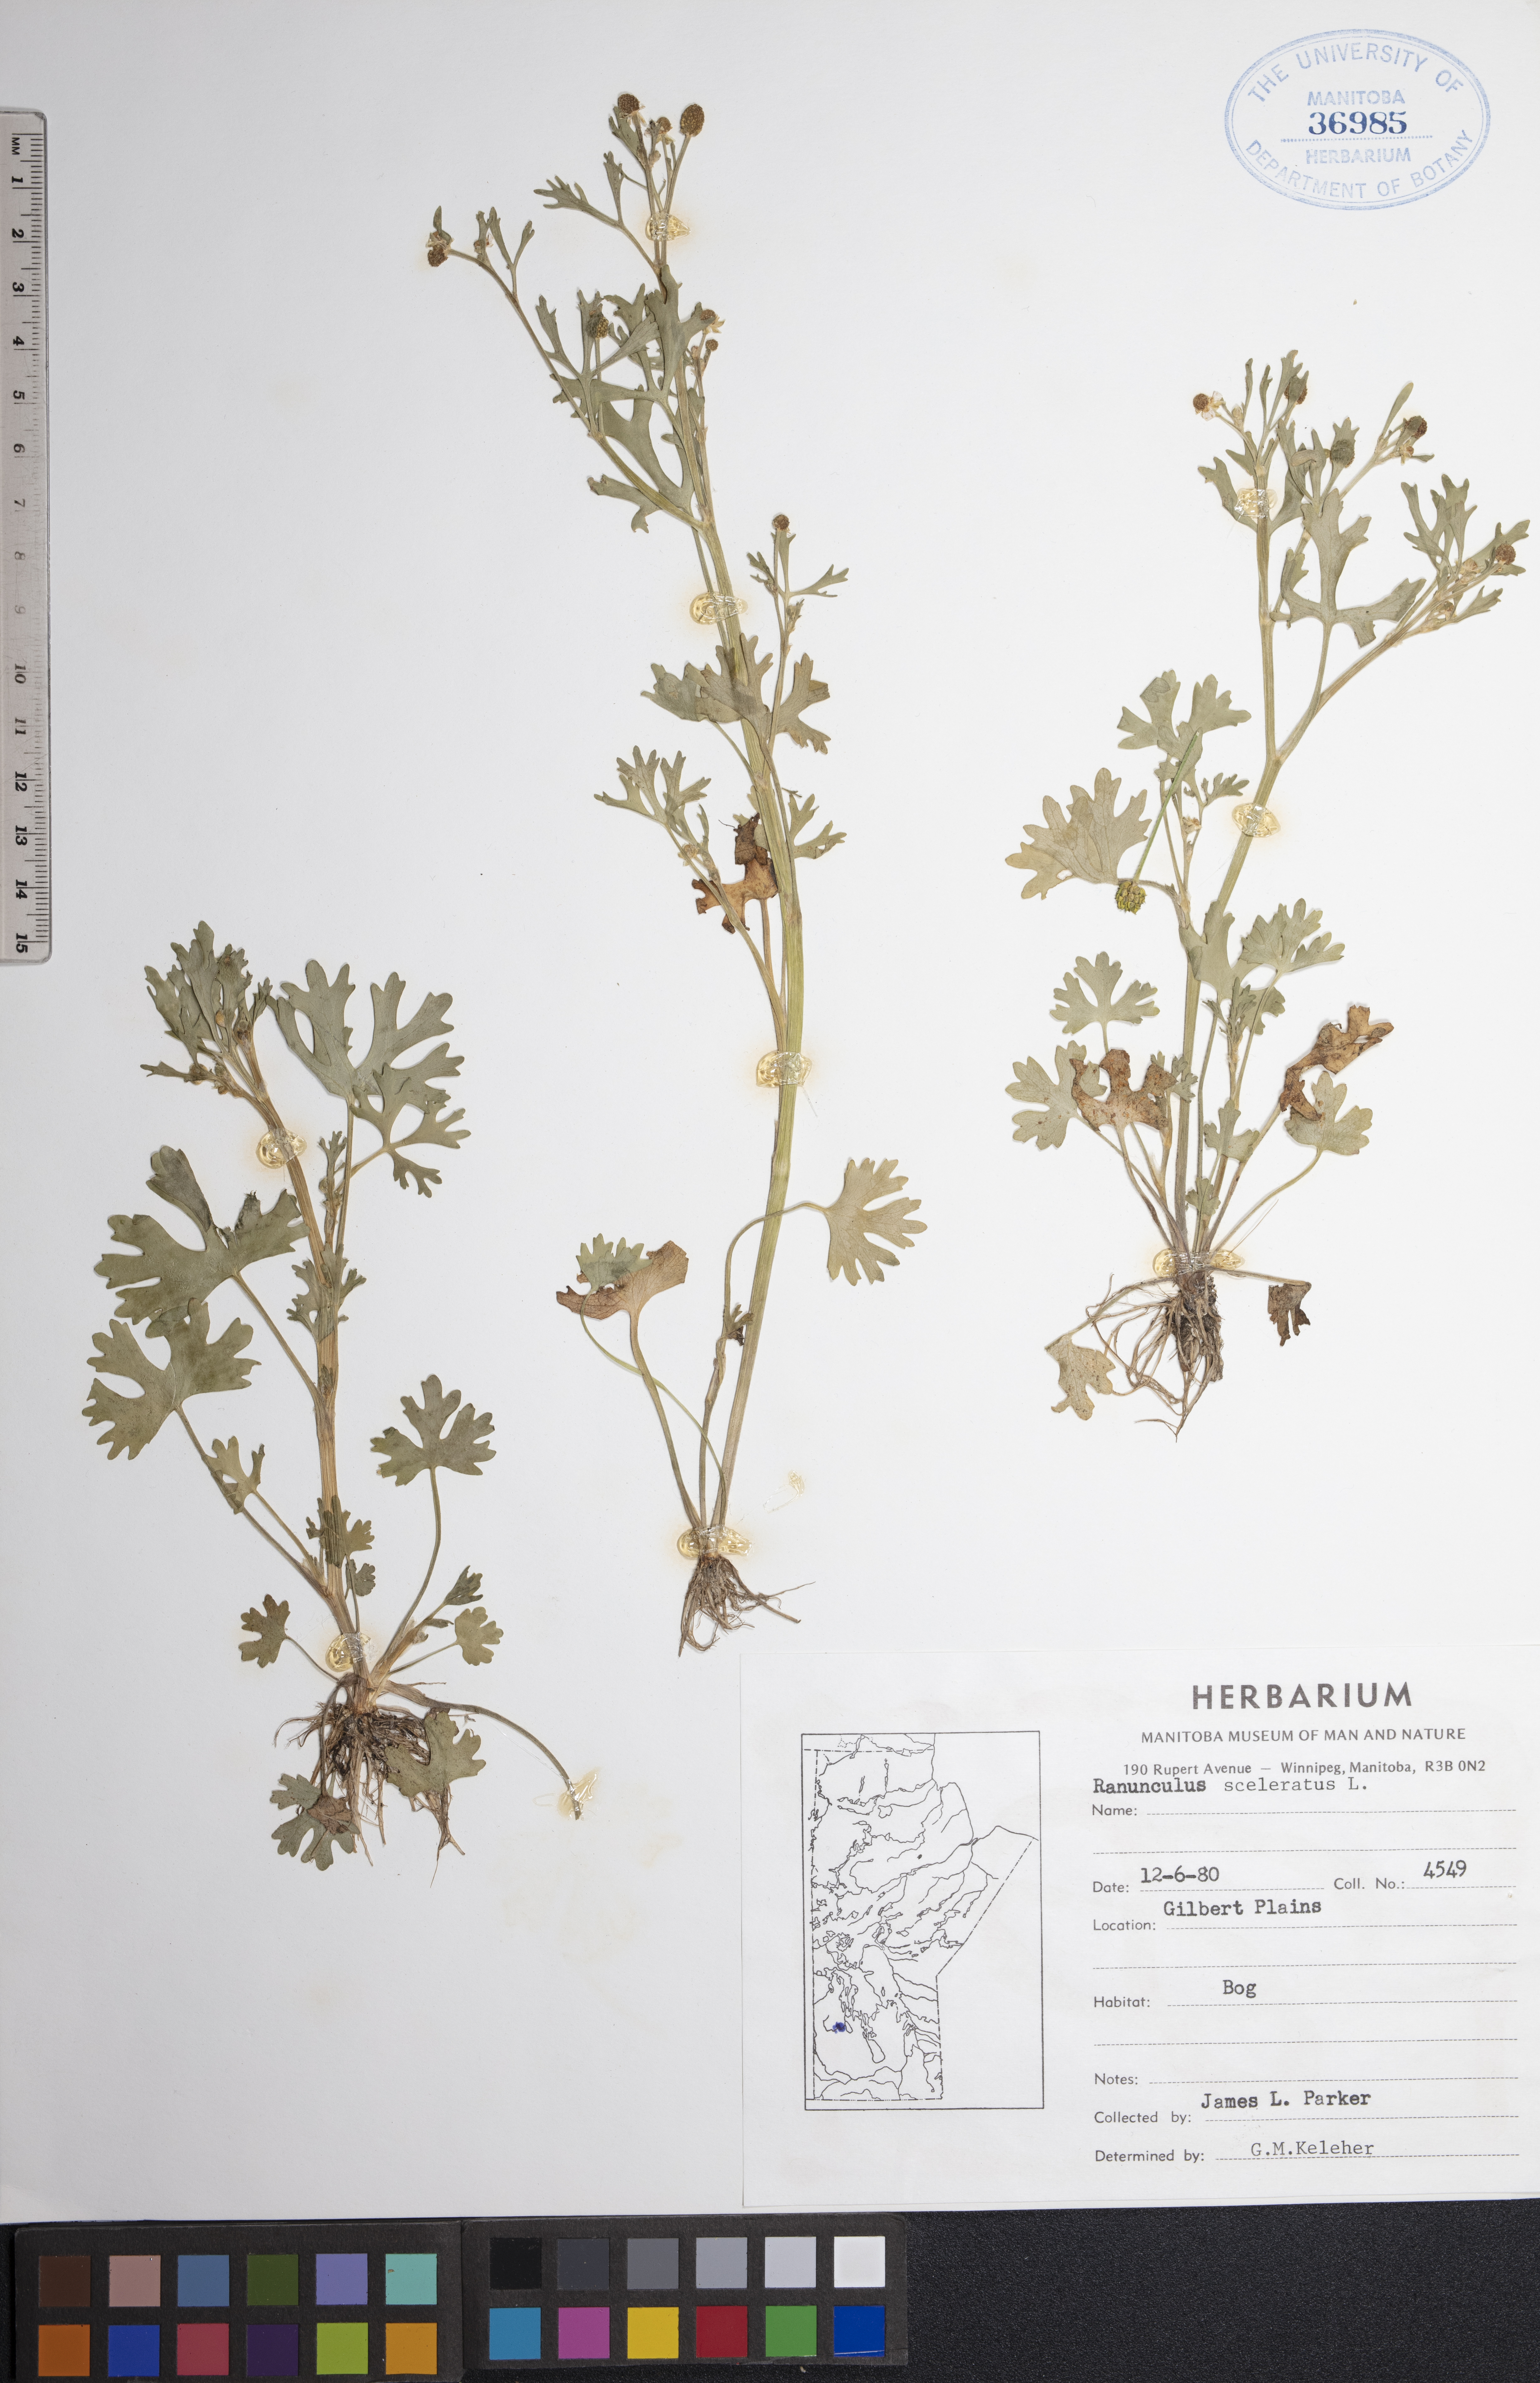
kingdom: Plantae
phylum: Tracheophyta
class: Magnoliopsida
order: Ranunculales
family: Ranunculaceae
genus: Ranunculus
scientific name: Ranunculus sceleratus
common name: Celery-leaved buttercup
